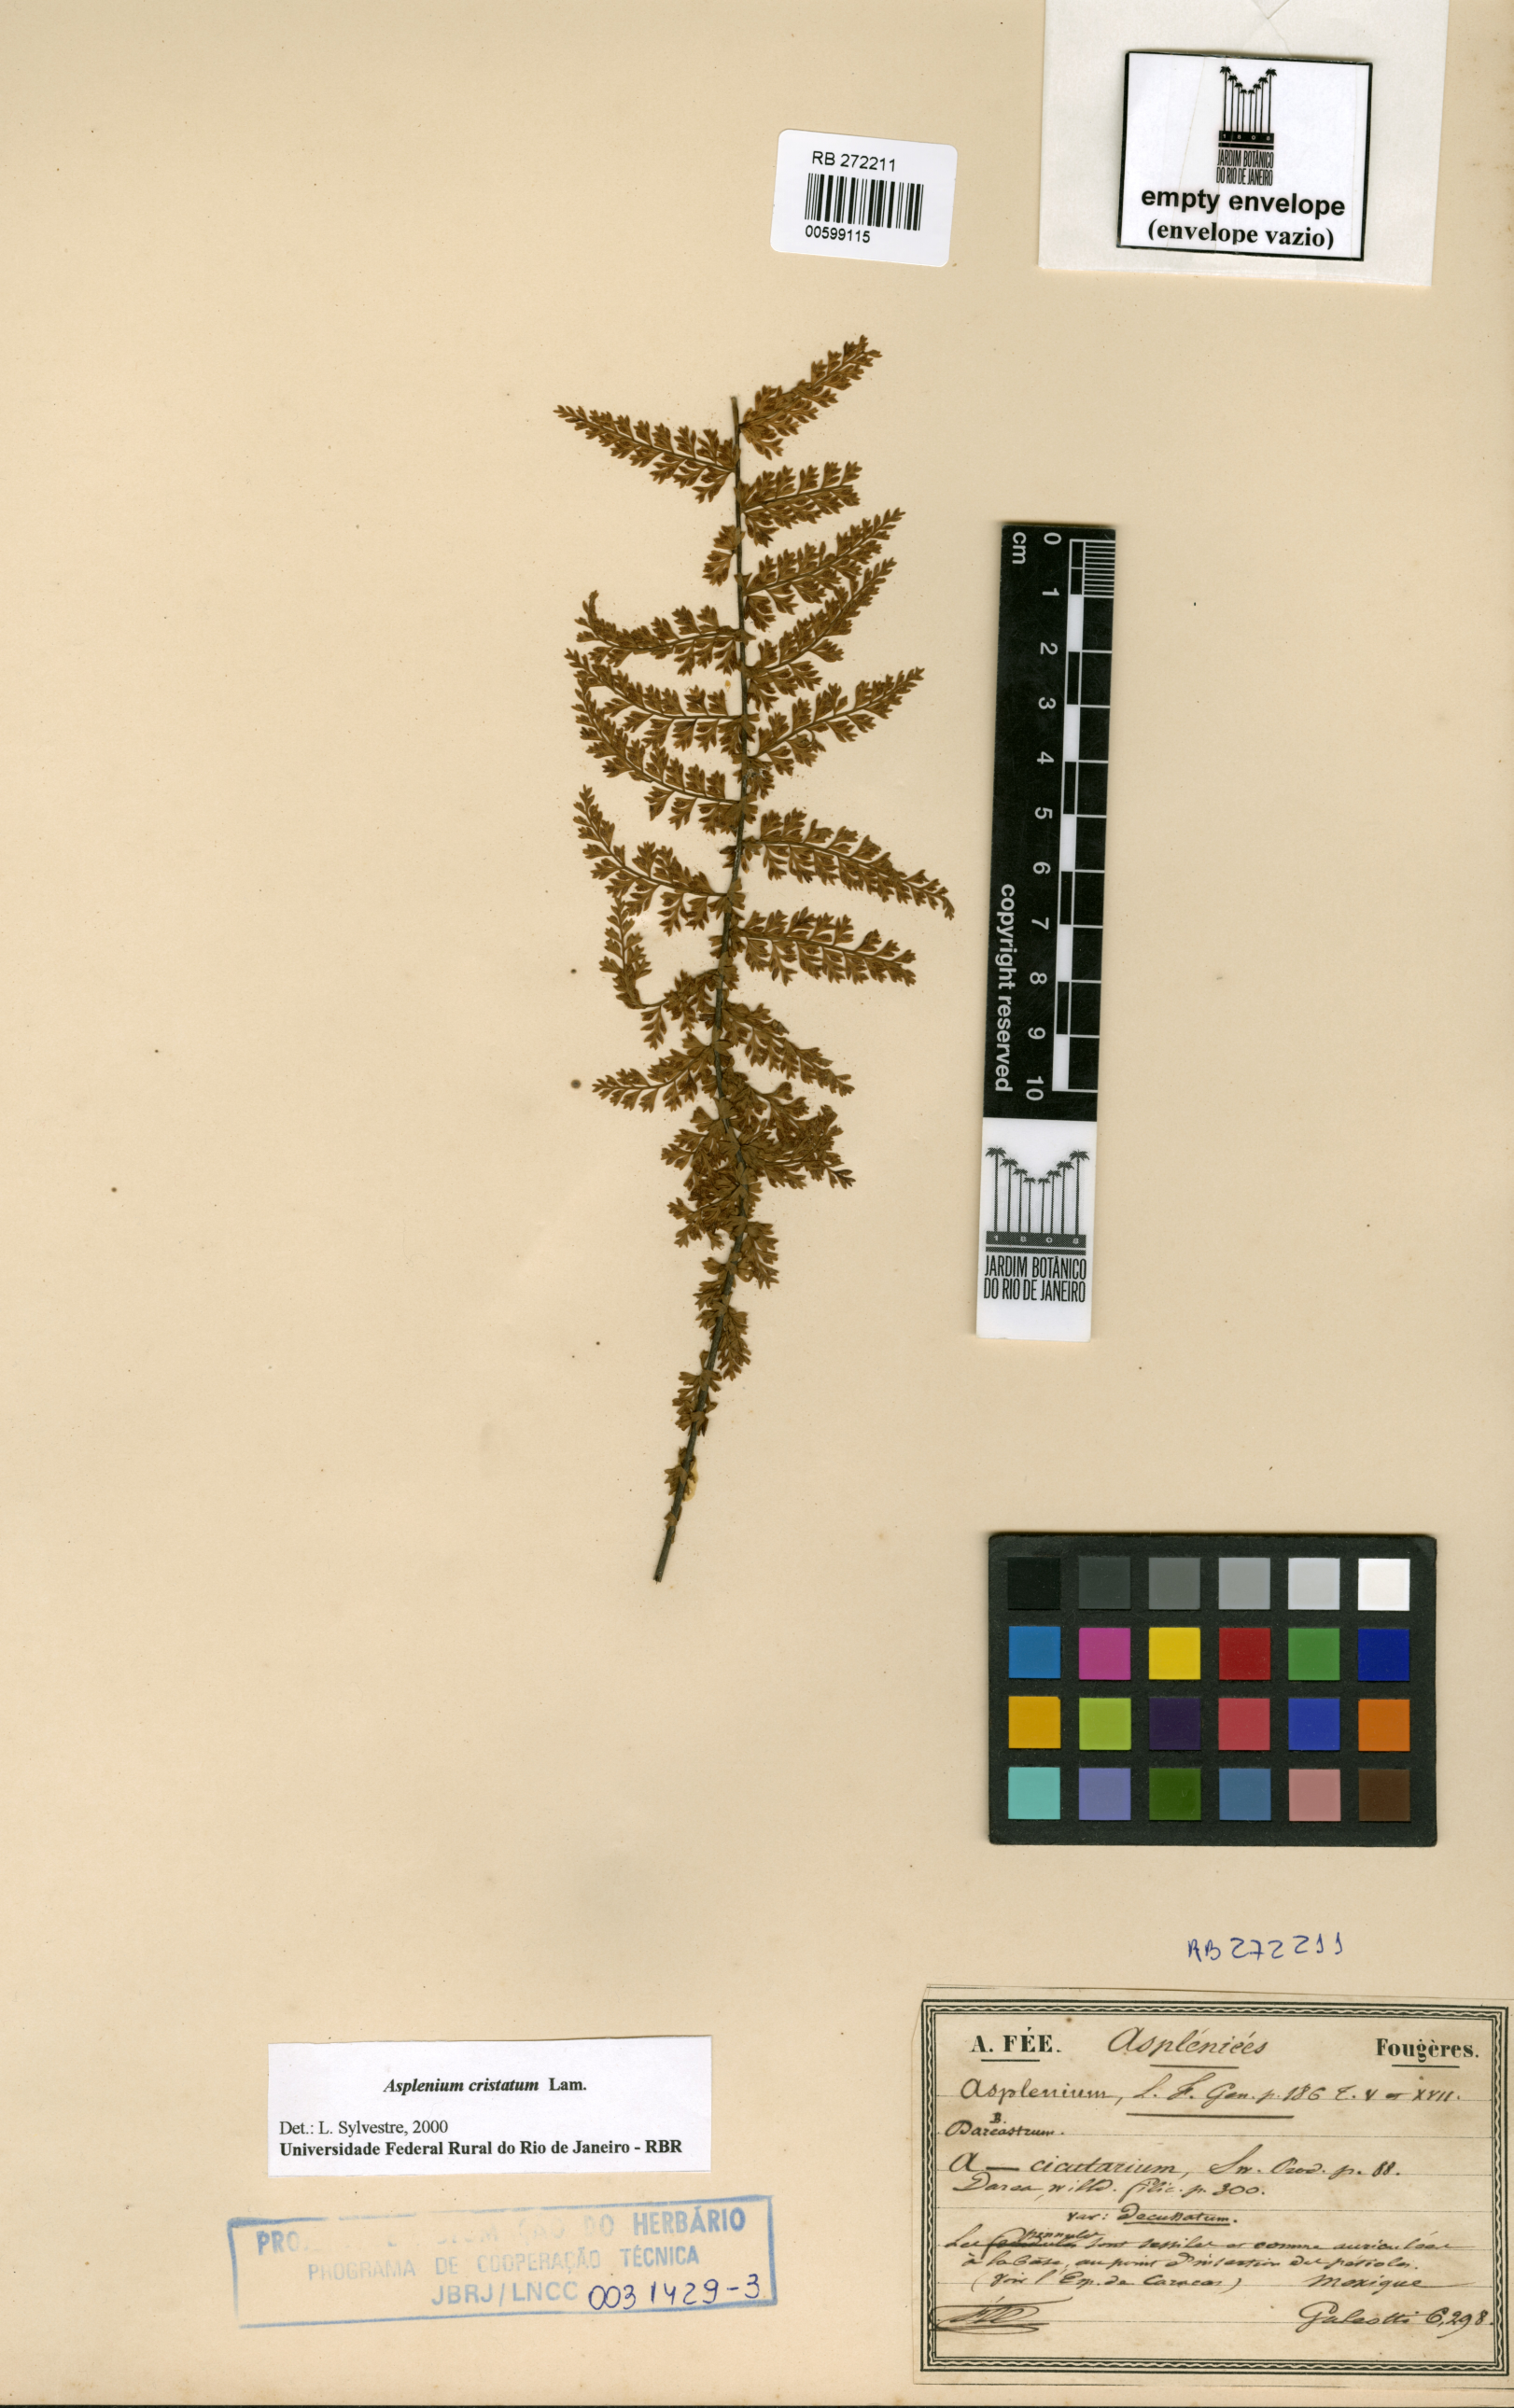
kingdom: Plantae
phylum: Tracheophyta
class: Polypodiopsida
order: Polypodiales
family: Aspleniaceae
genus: Asplenium
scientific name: Asplenium cristatum
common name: Parsley spleenwort
